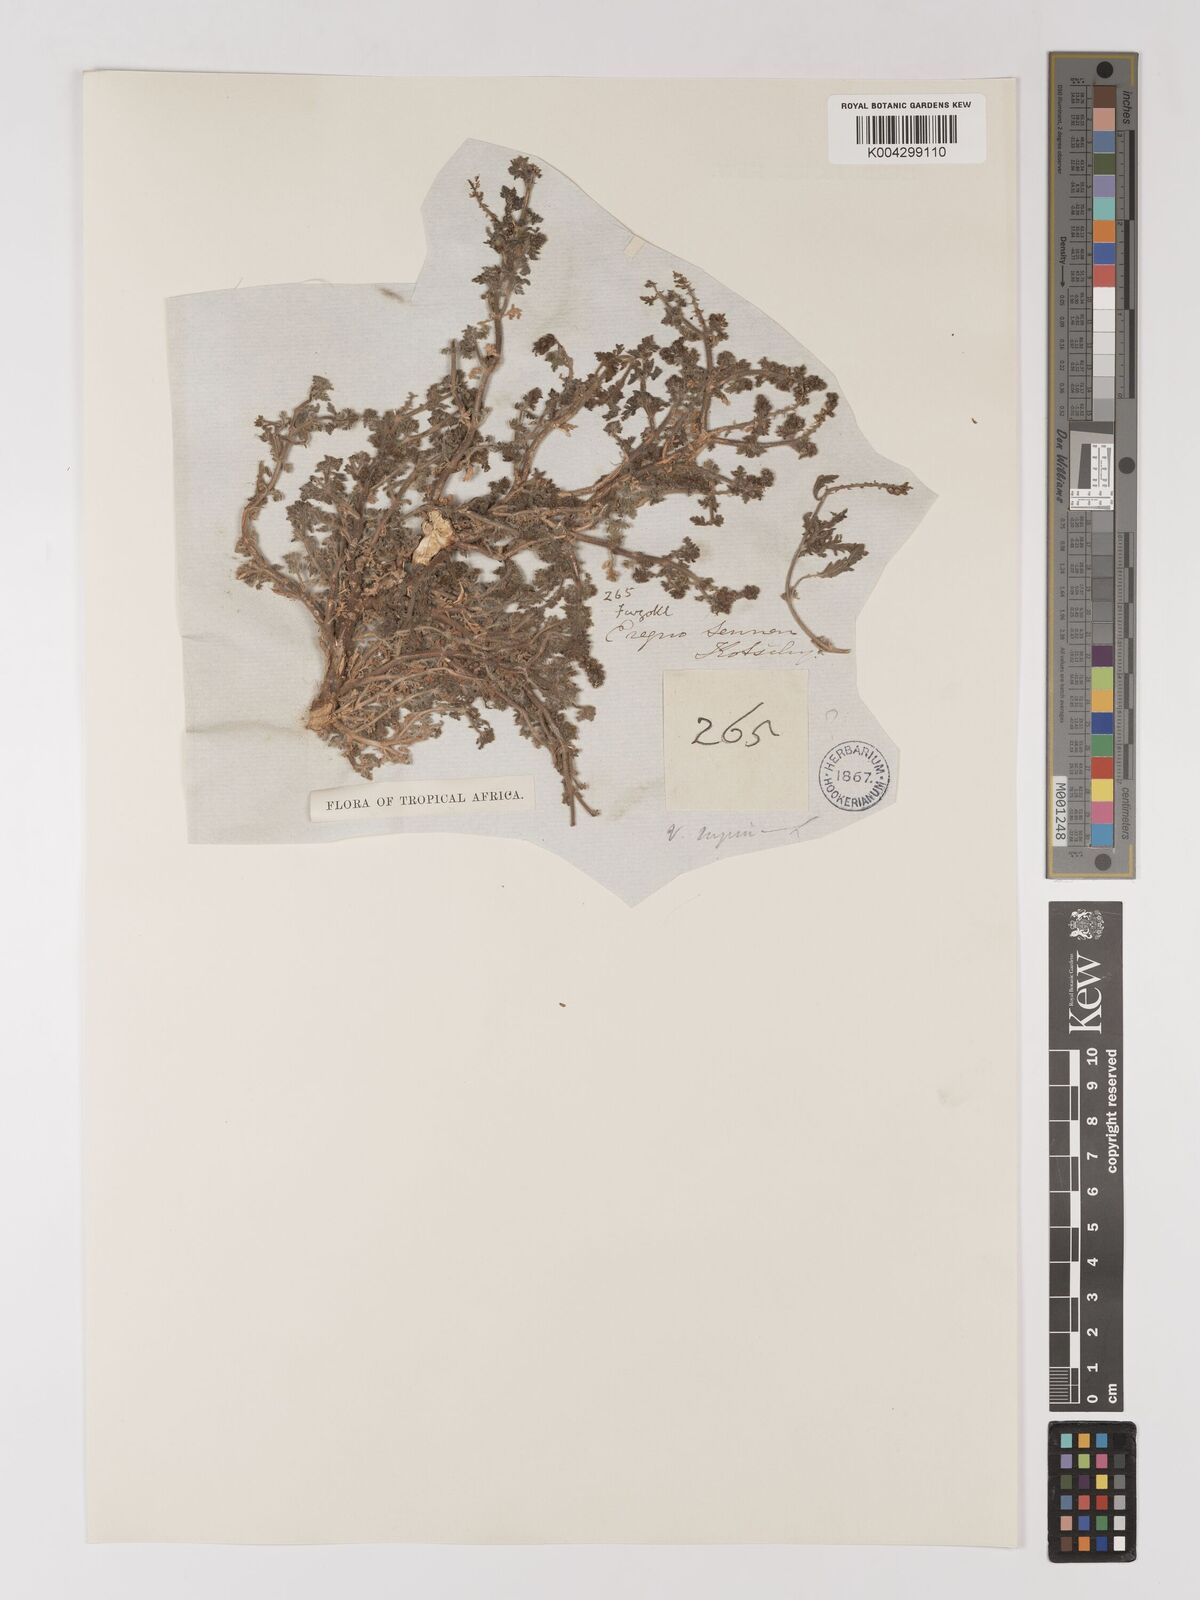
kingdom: Plantae
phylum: Tracheophyta
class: Magnoliopsida
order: Lamiales
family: Verbenaceae
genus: Verbena
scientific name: Verbena supina
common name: Trailing vervain
